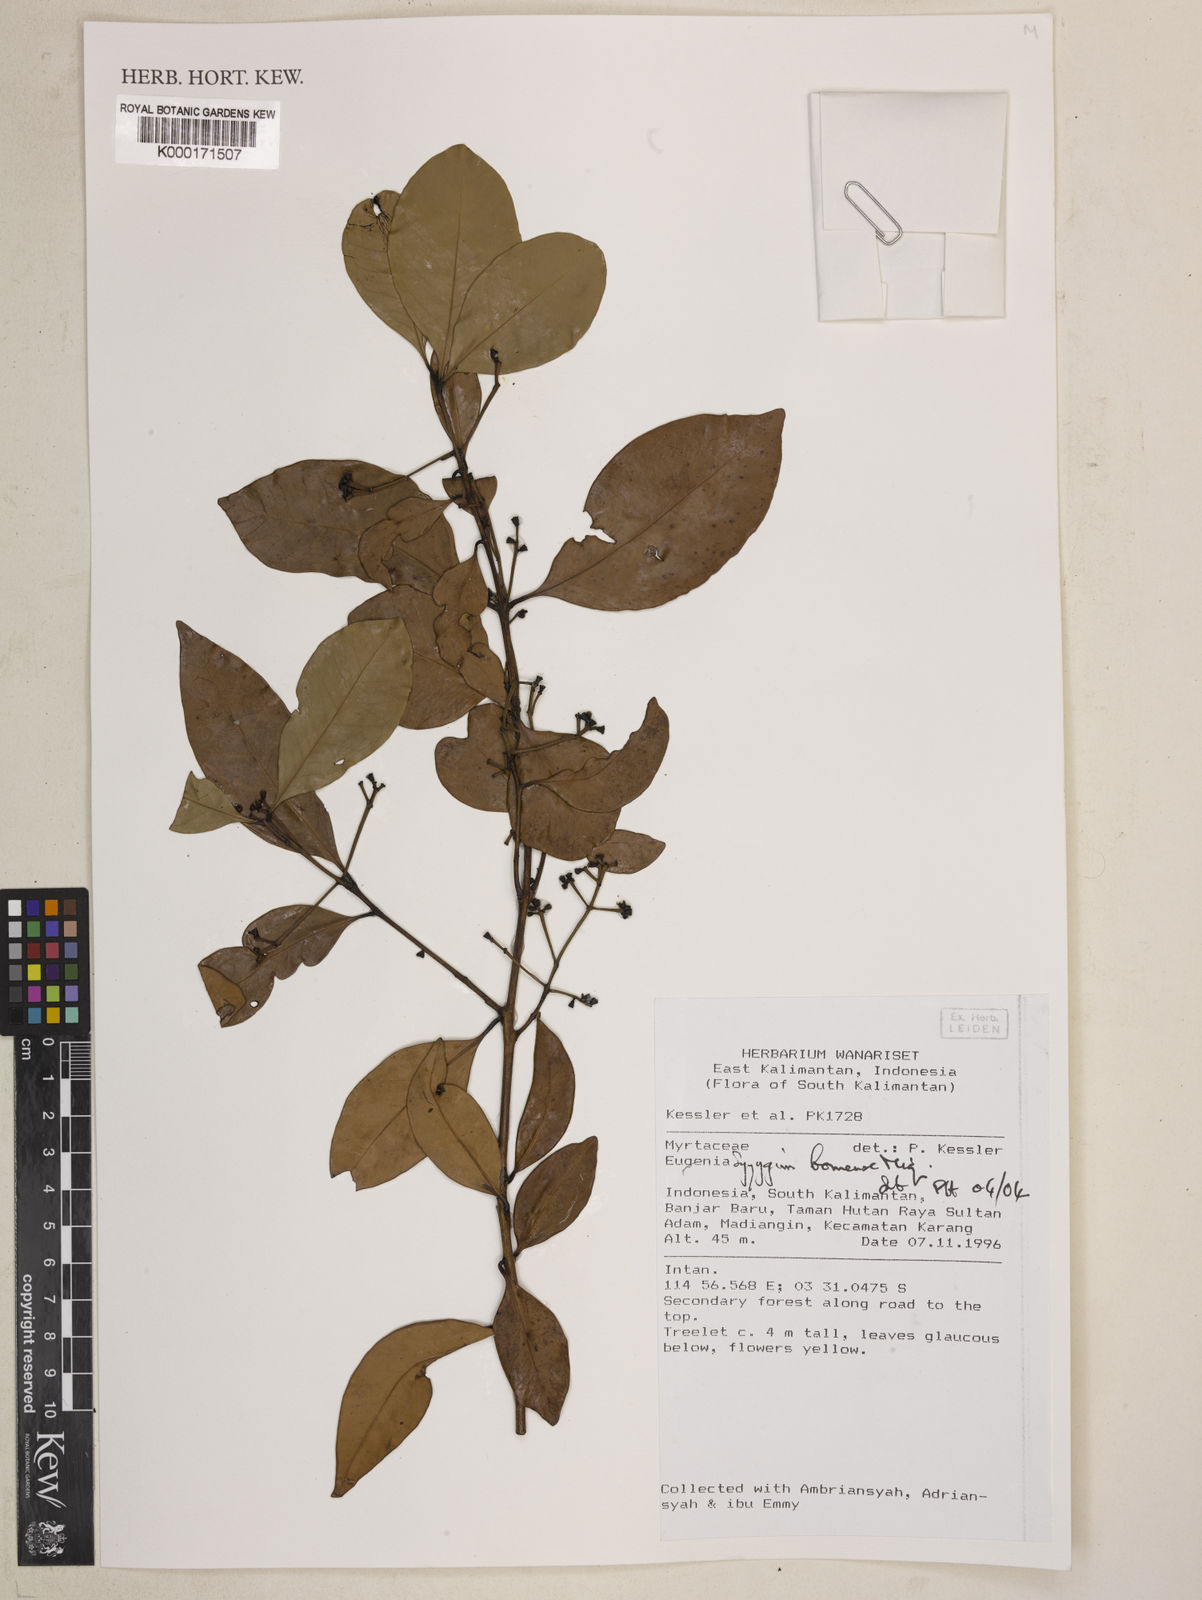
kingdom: Plantae
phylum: Tracheophyta
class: Magnoliopsida
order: Myrtales
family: Myrtaceae
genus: Syzygium
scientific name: Syzygium borneense
